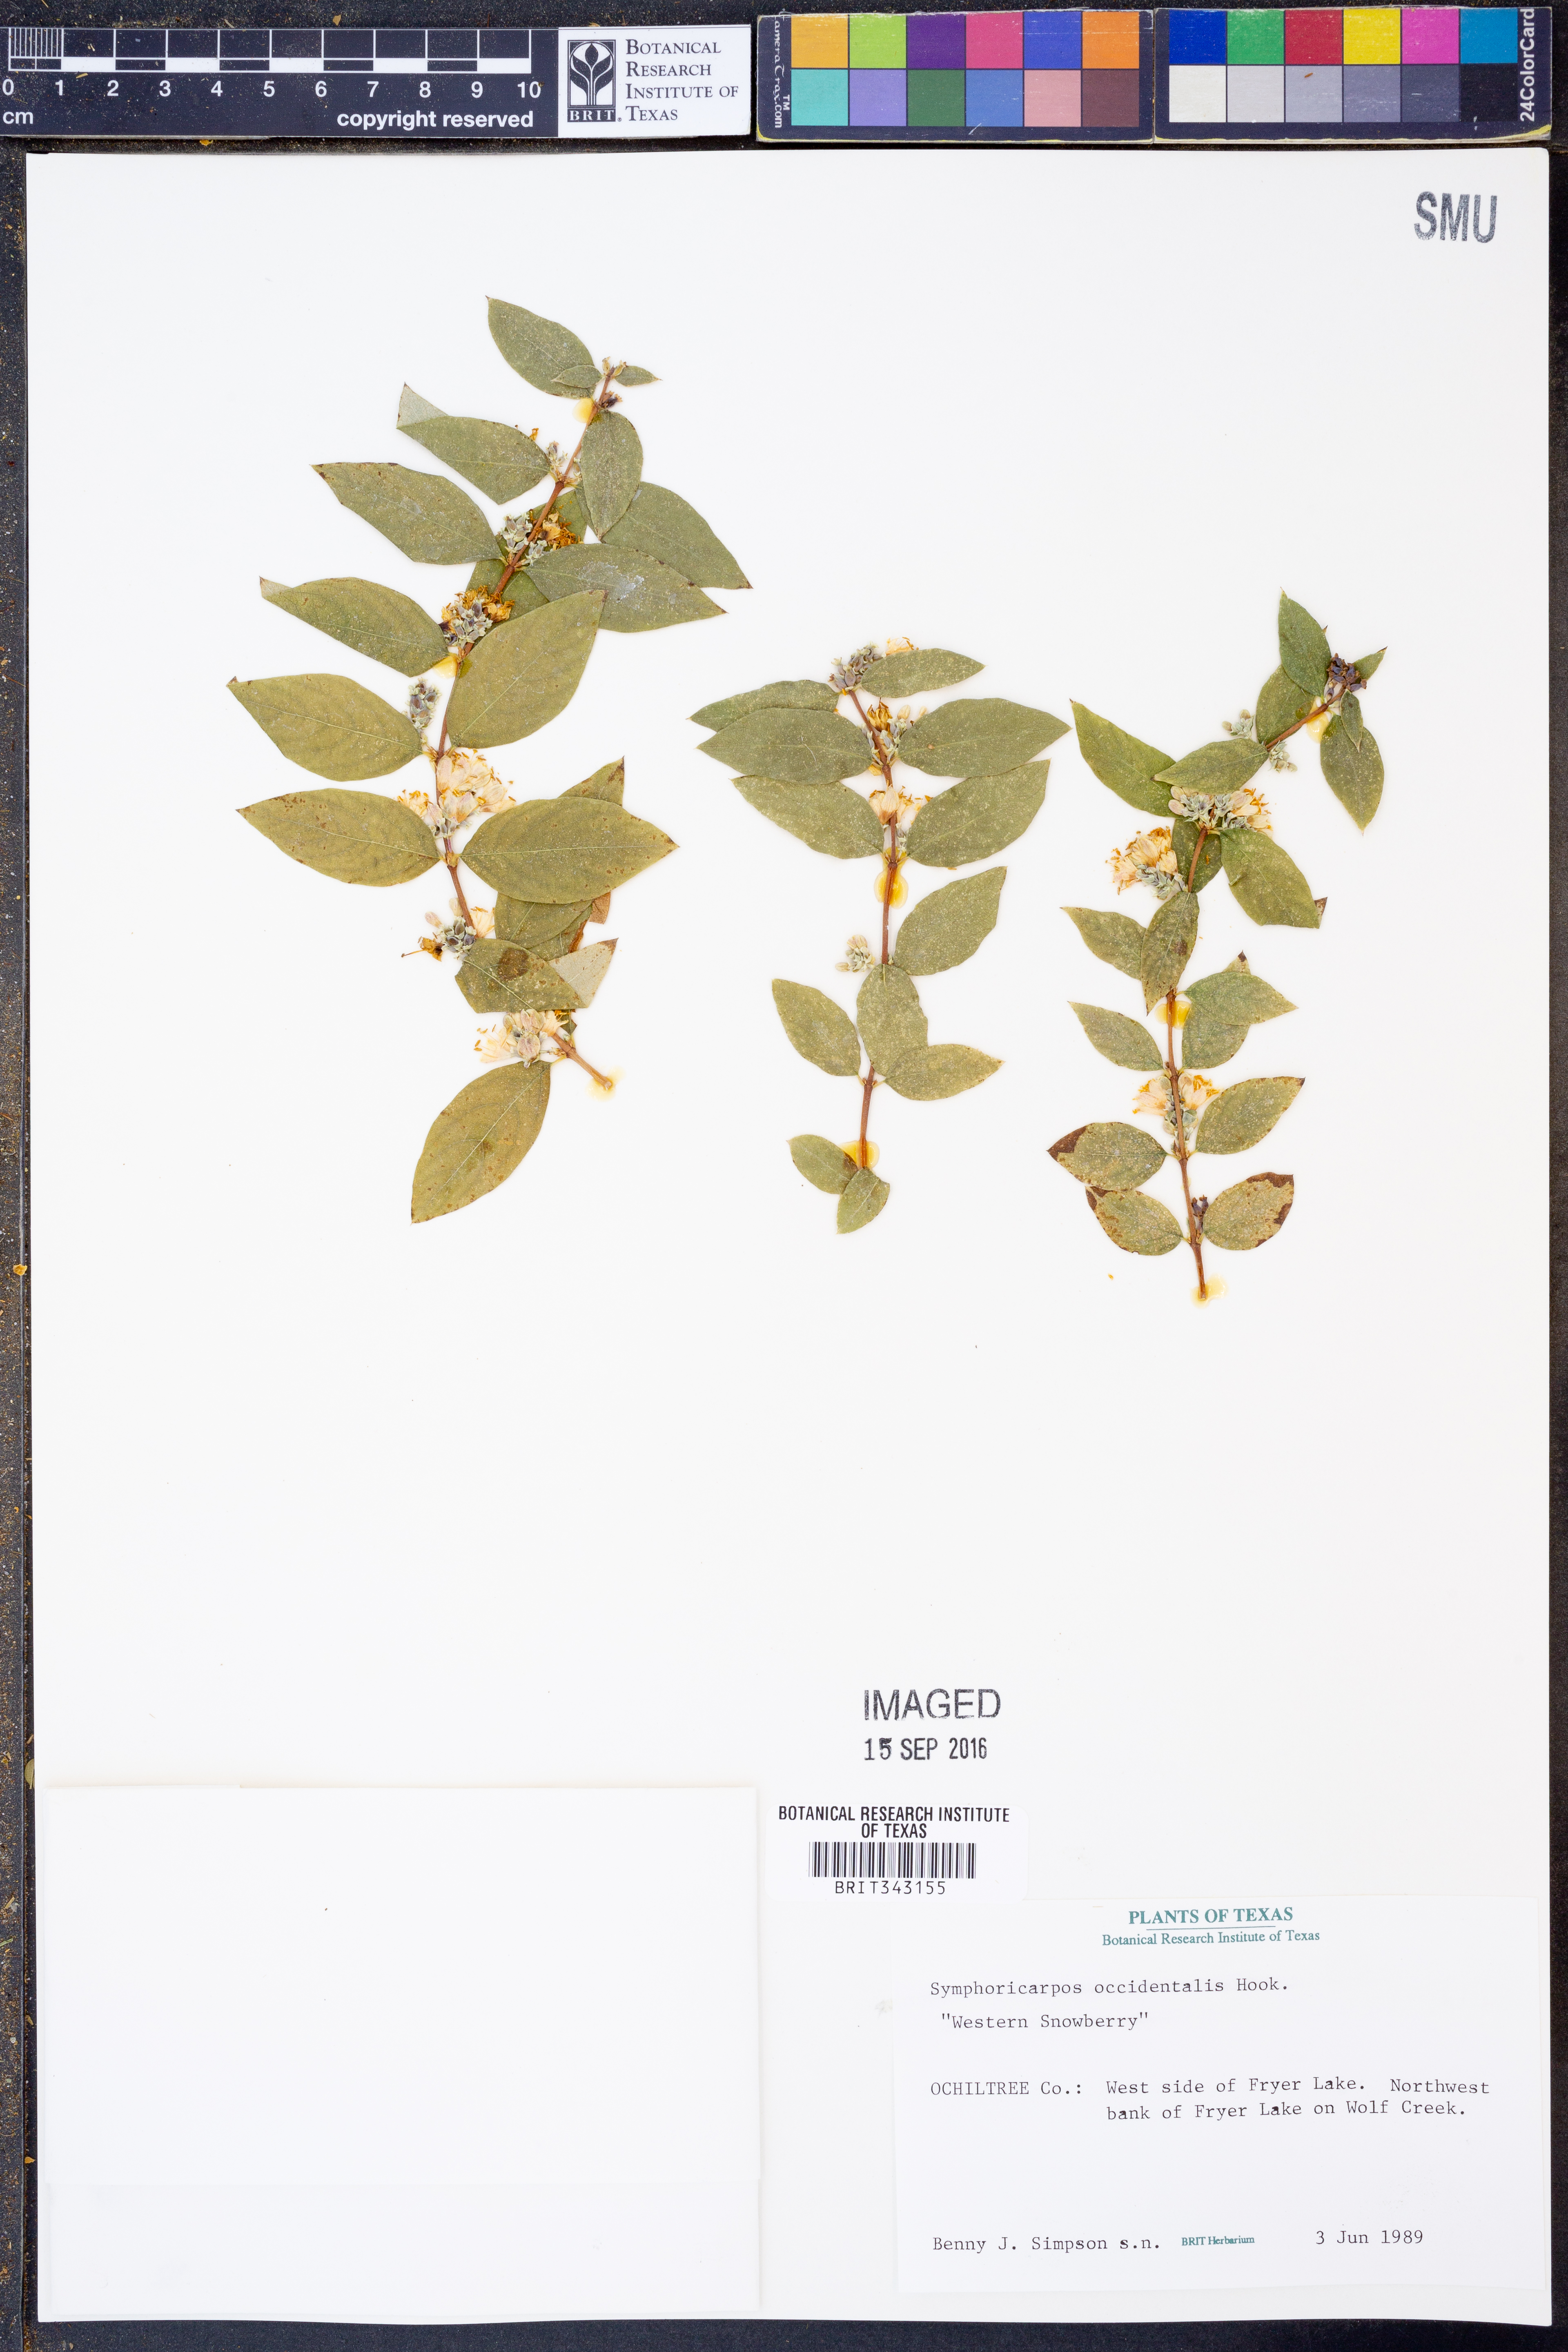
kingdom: Plantae
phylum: Tracheophyta
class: Magnoliopsida
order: Dipsacales
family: Caprifoliaceae
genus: Symphoricarpos
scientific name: Symphoricarpos occidentalis
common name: Wolfberry
